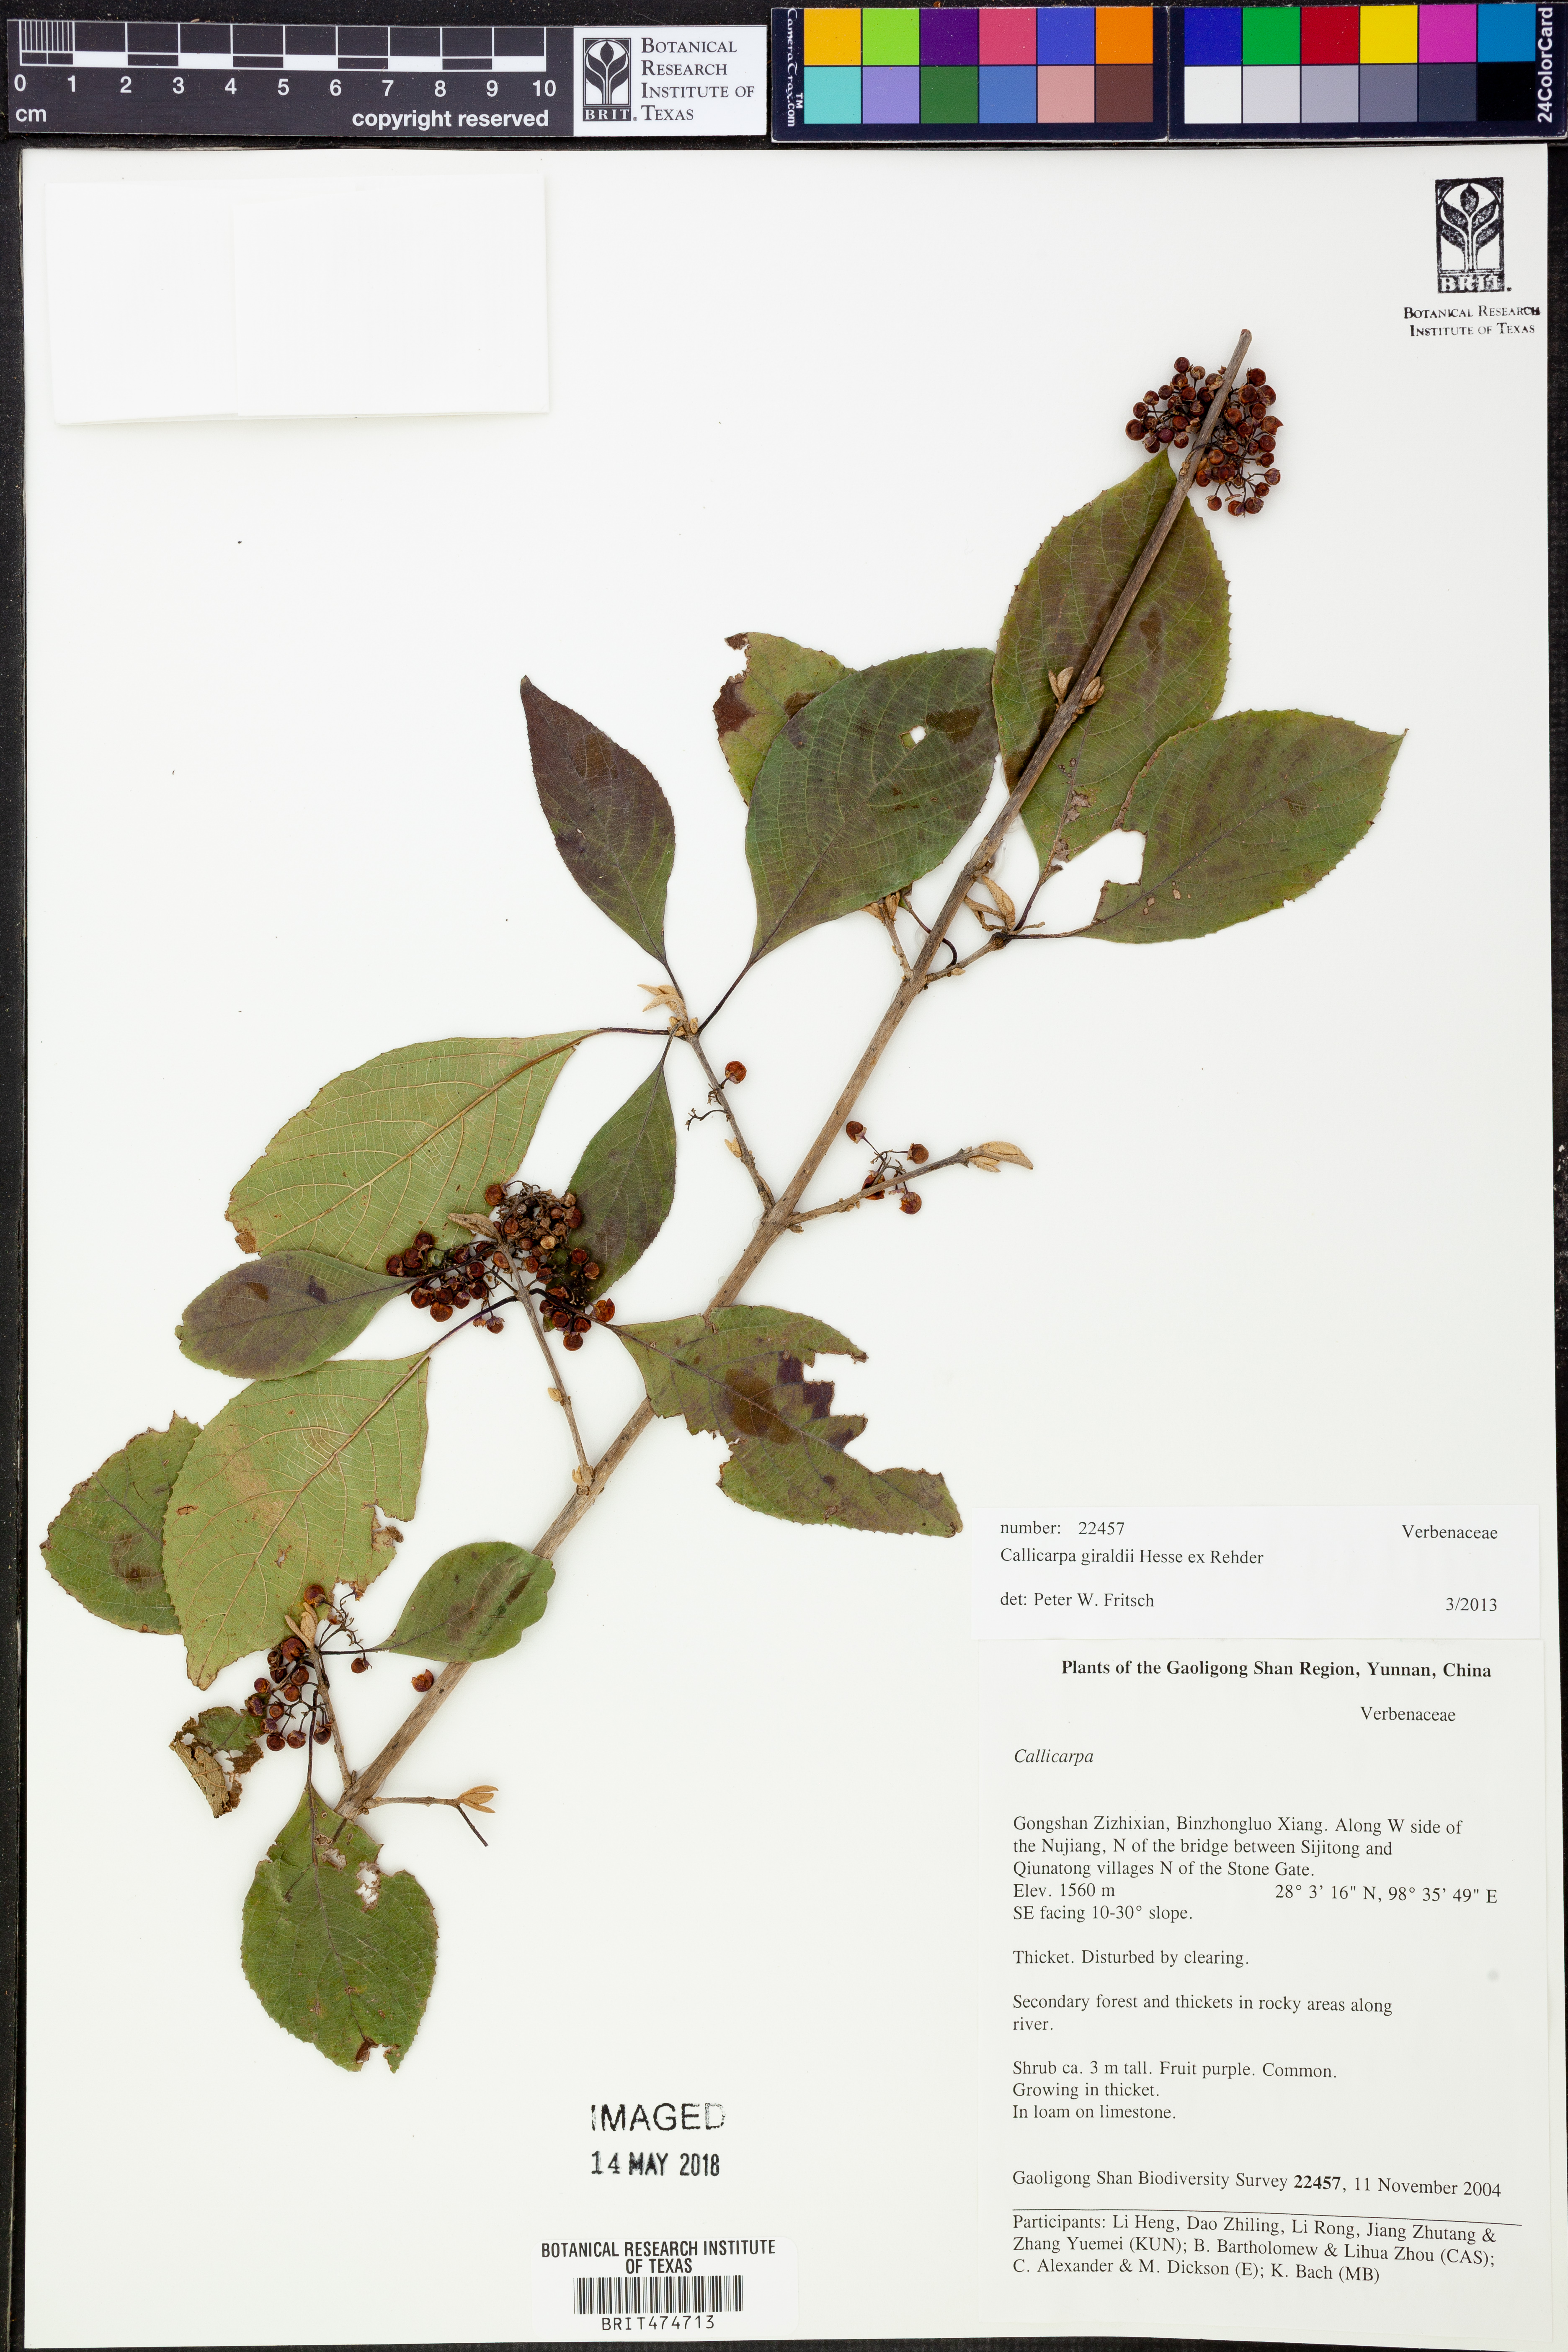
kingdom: Plantae
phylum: Tracheophyta
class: Magnoliopsida
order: Lamiales
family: Lamiaceae
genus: Callicarpa
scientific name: Callicarpa giraldii
